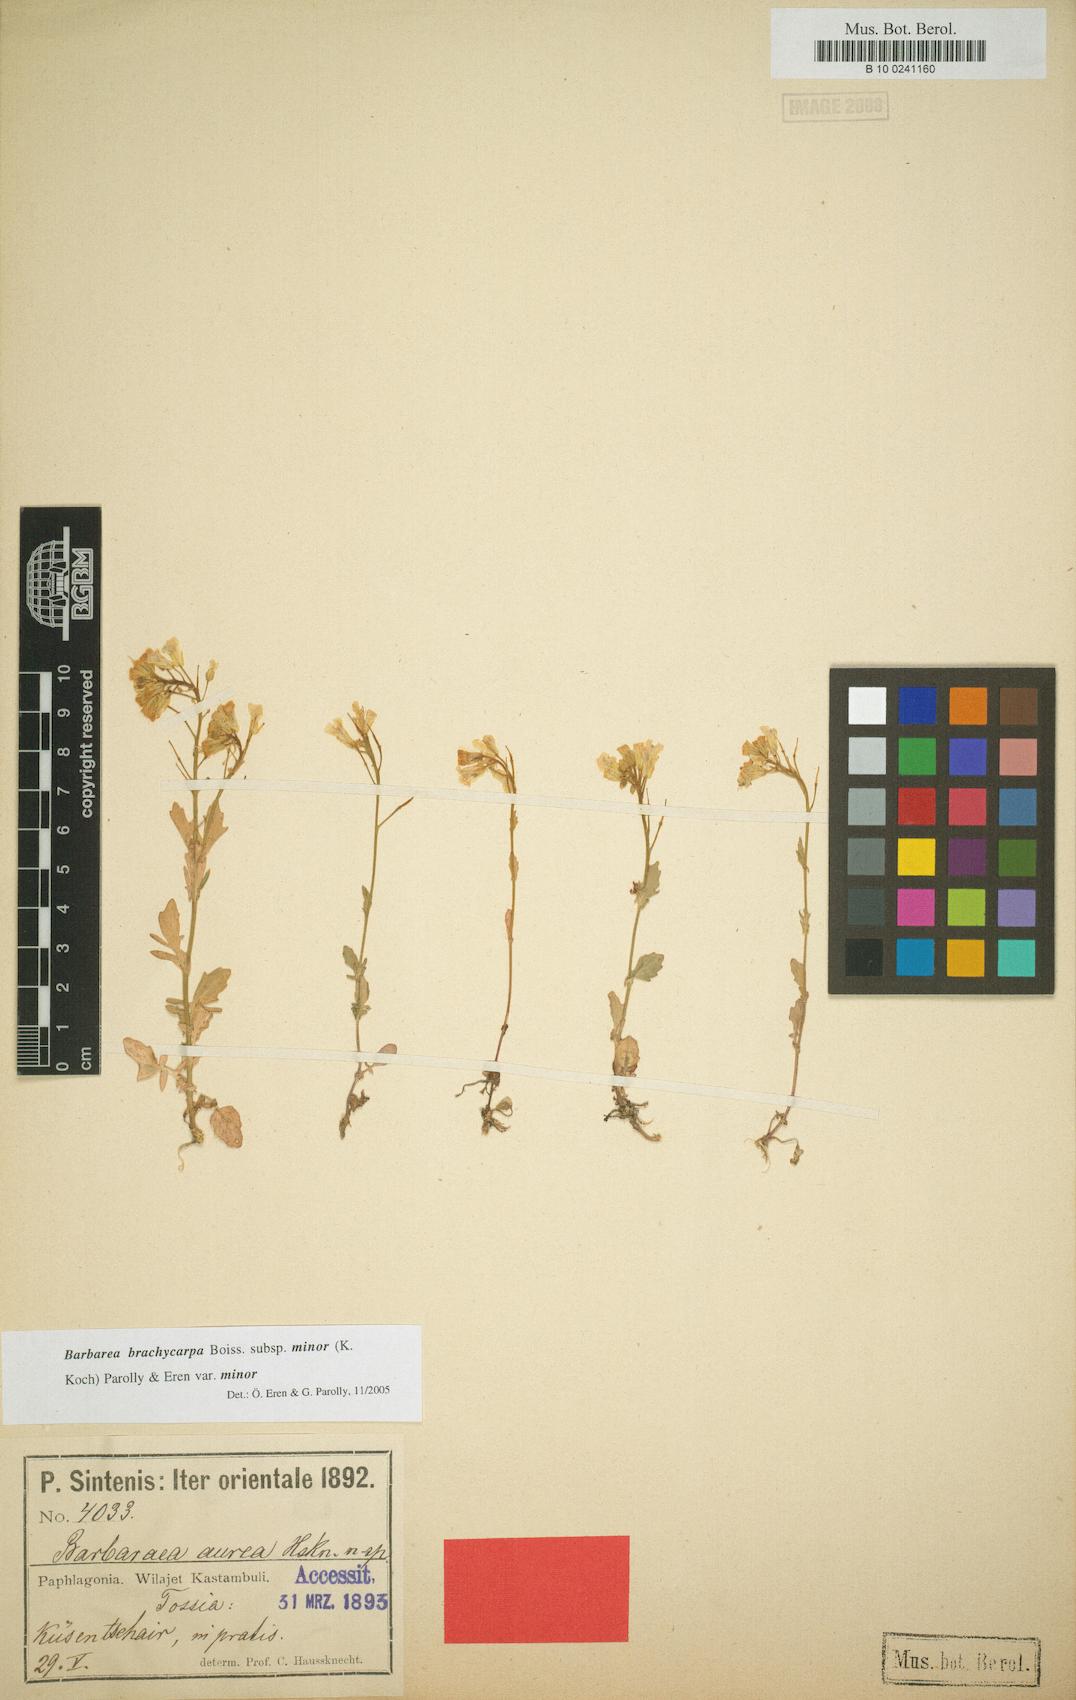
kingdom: Plantae
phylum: Tracheophyta
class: Magnoliopsida
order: Brassicales
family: Brassicaceae
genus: Barbarea
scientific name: Barbarea brachycarpa
